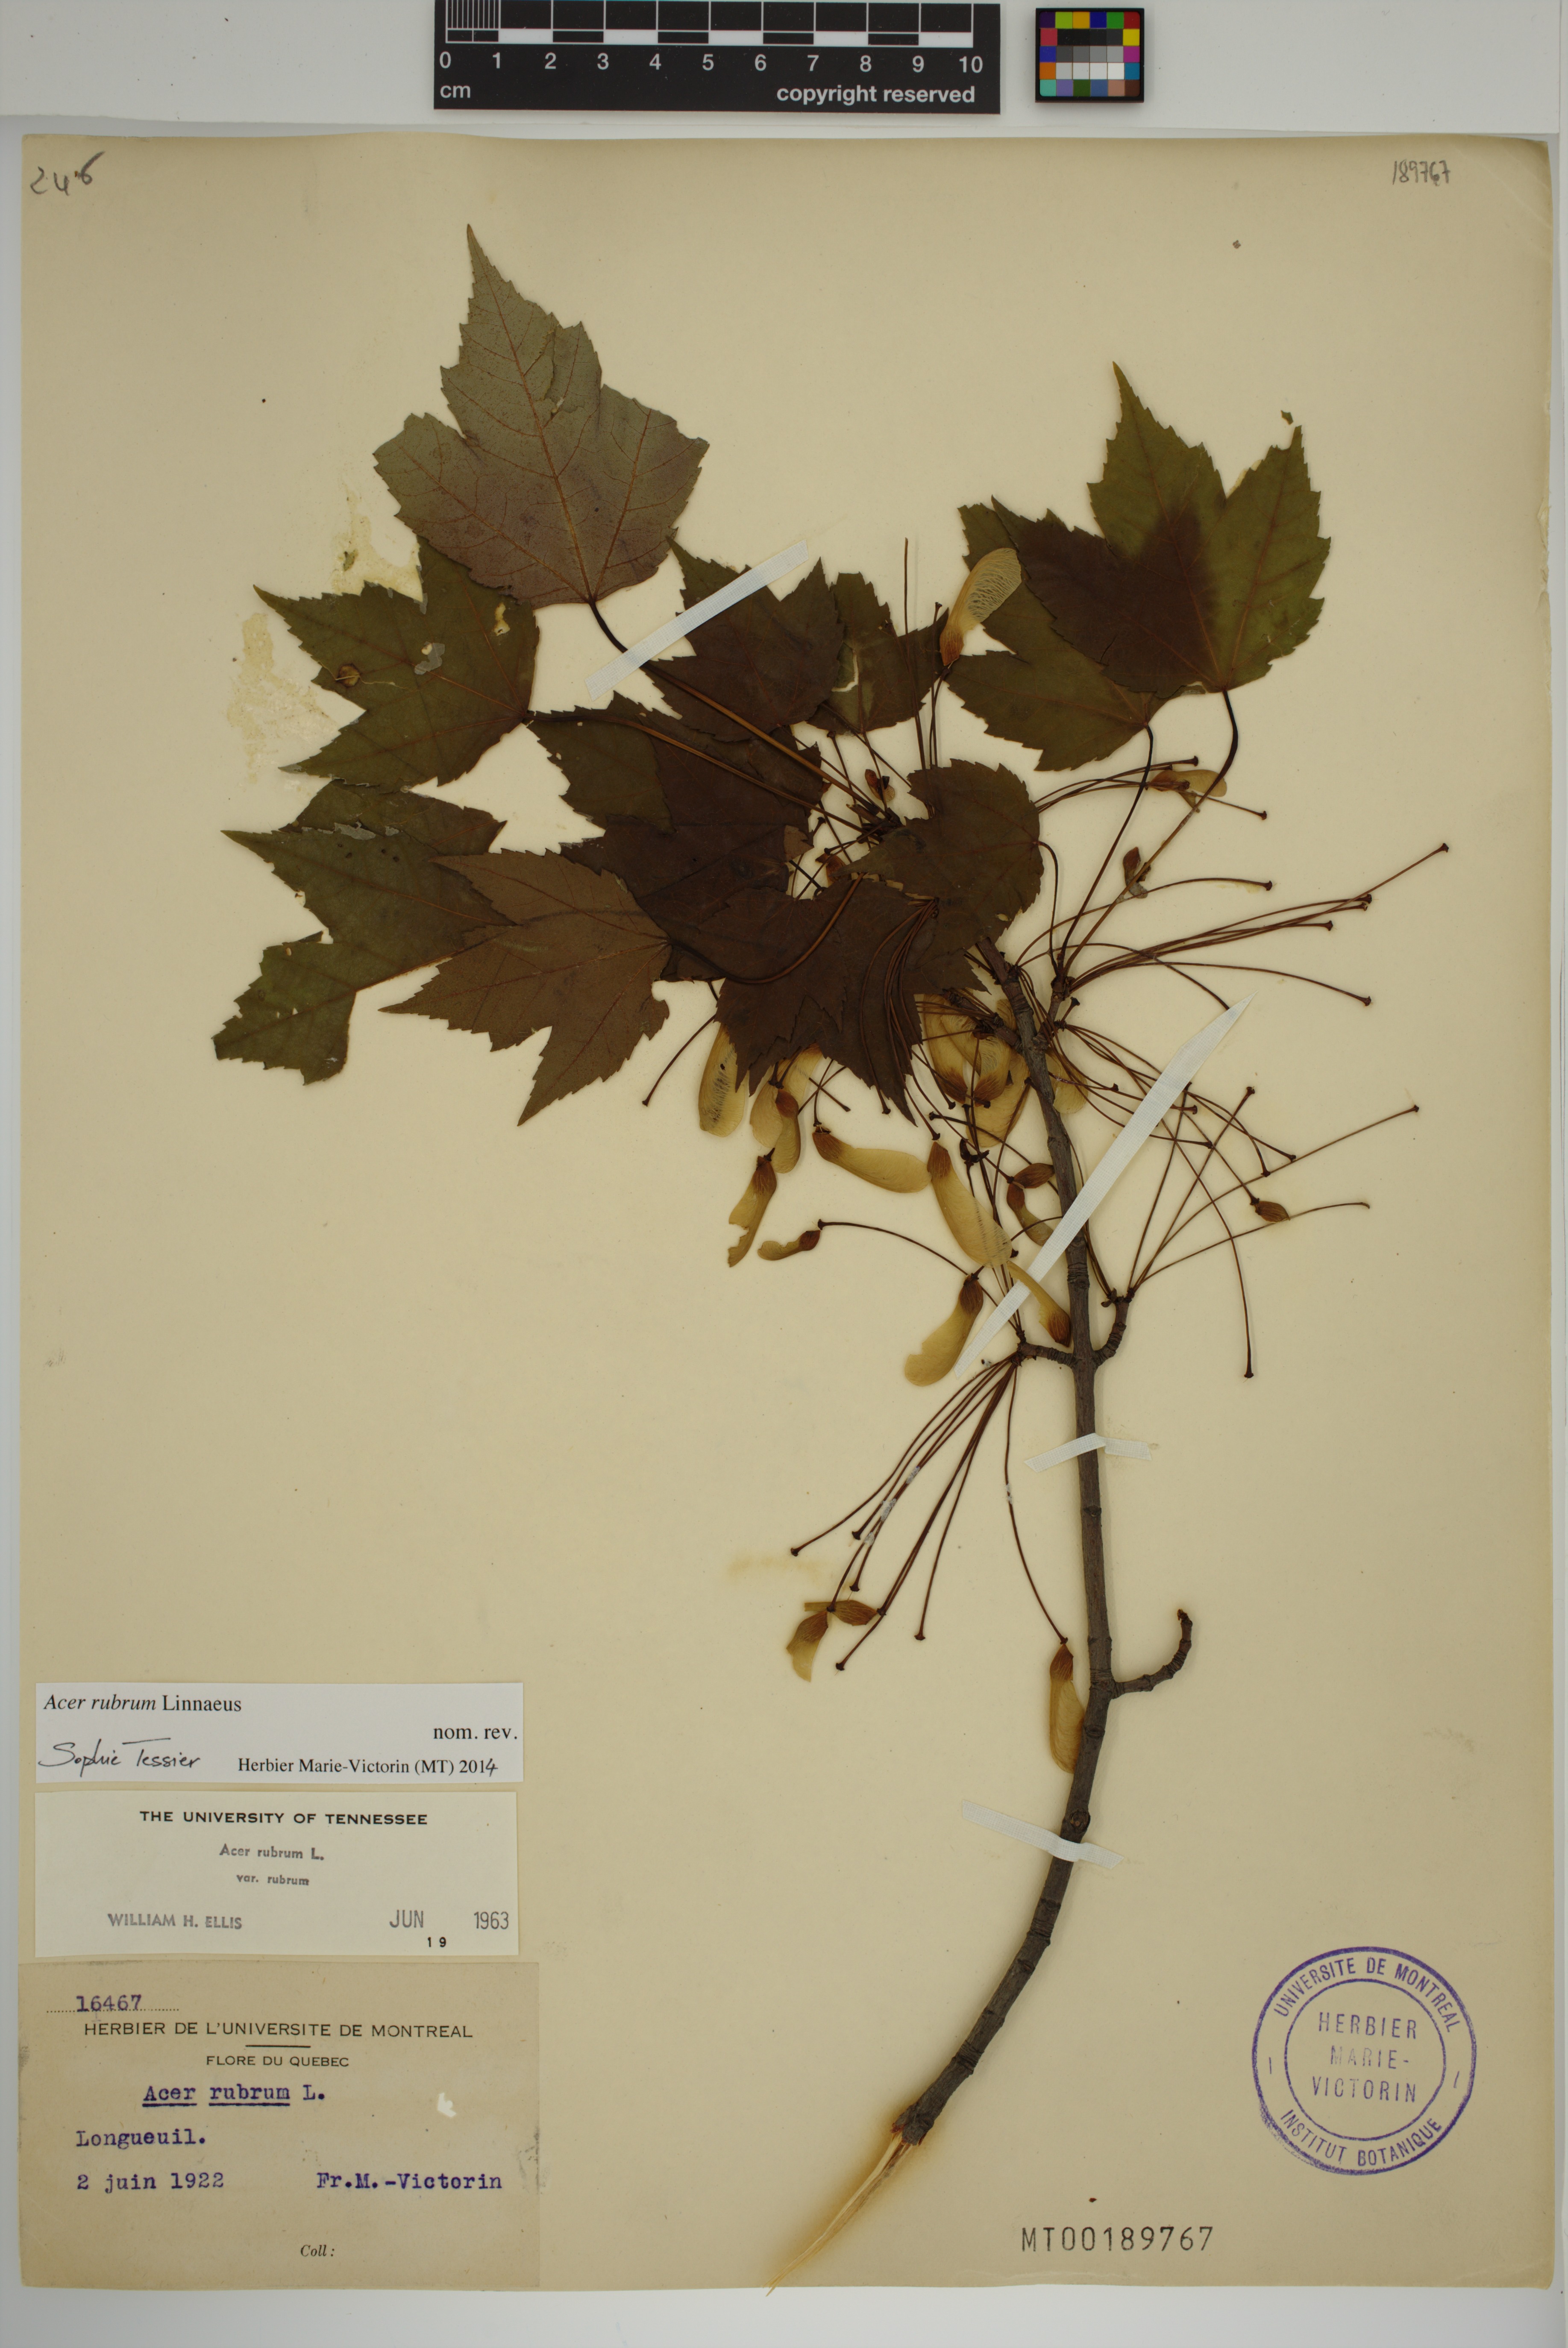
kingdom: Plantae
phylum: Tracheophyta
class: Magnoliopsida
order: Sapindales
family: Sapindaceae
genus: Acer
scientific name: Acer rubrum
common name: Red maple
